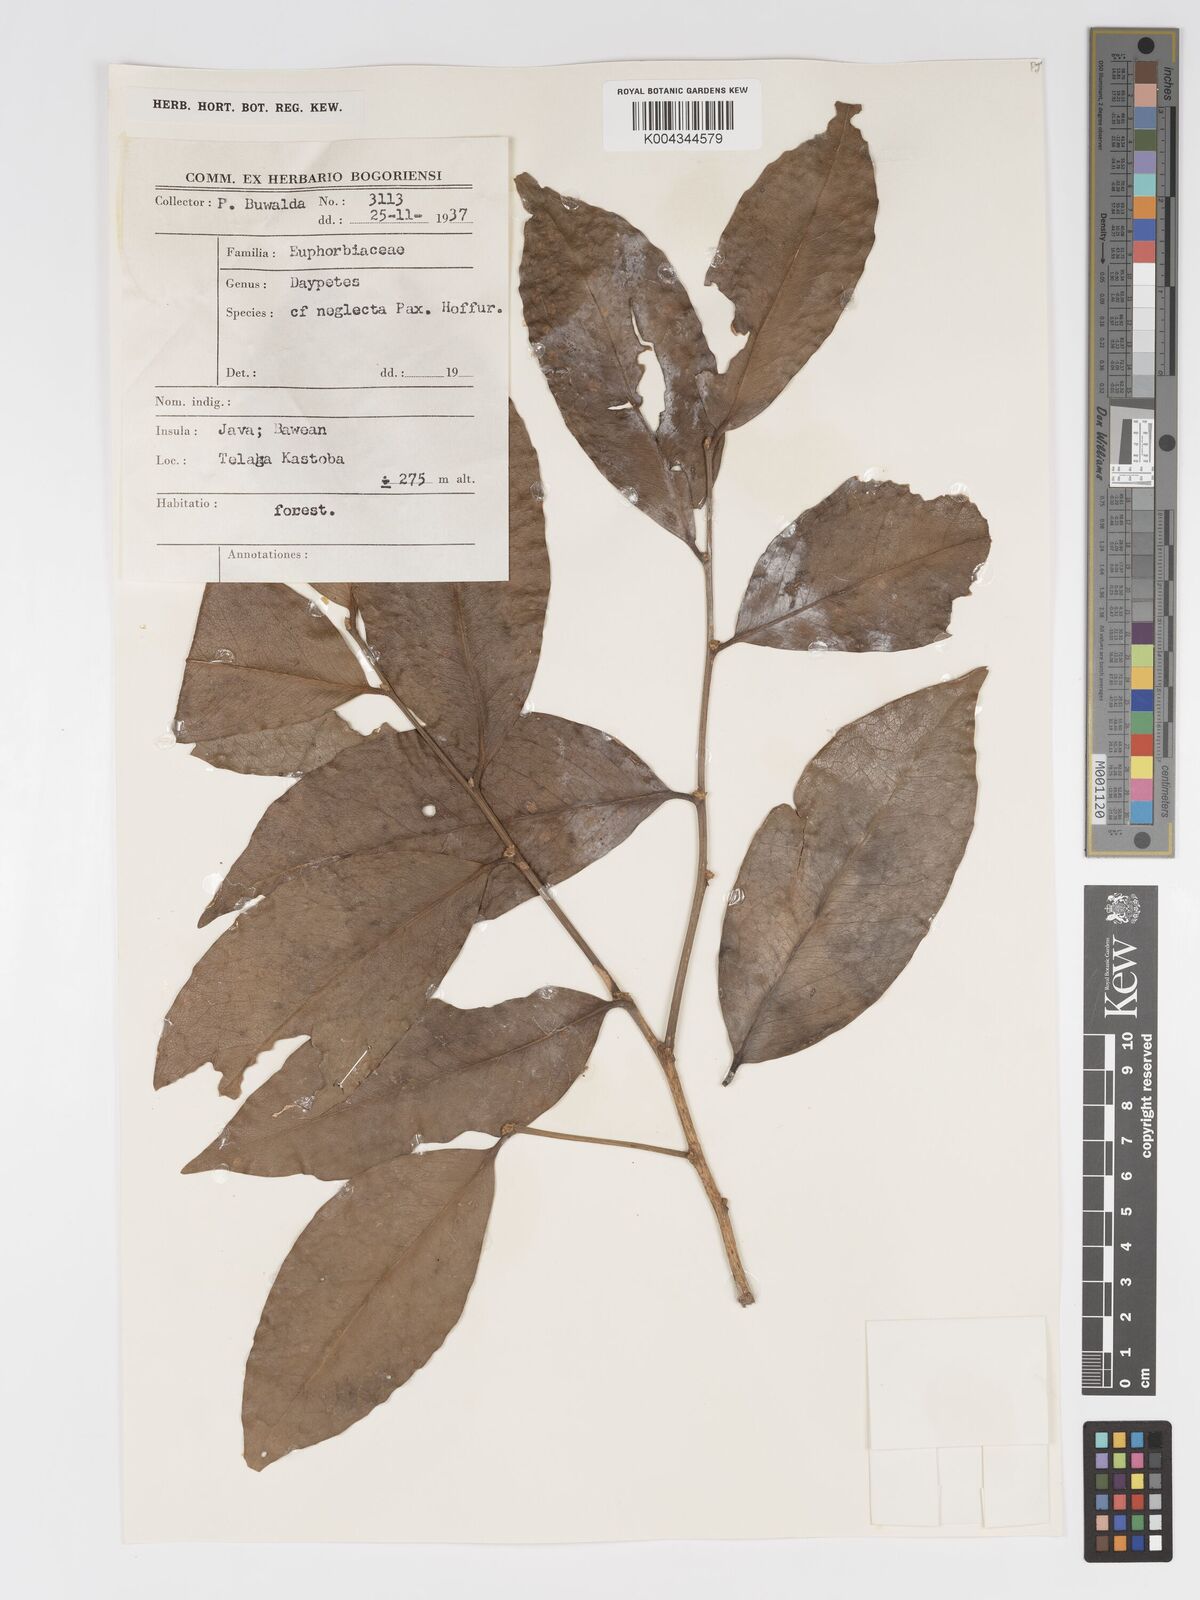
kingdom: Plantae
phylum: Tracheophyta
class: Magnoliopsida
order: Malpighiales
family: Putranjivaceae
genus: Drypetes
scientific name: Drypetes neglecta
